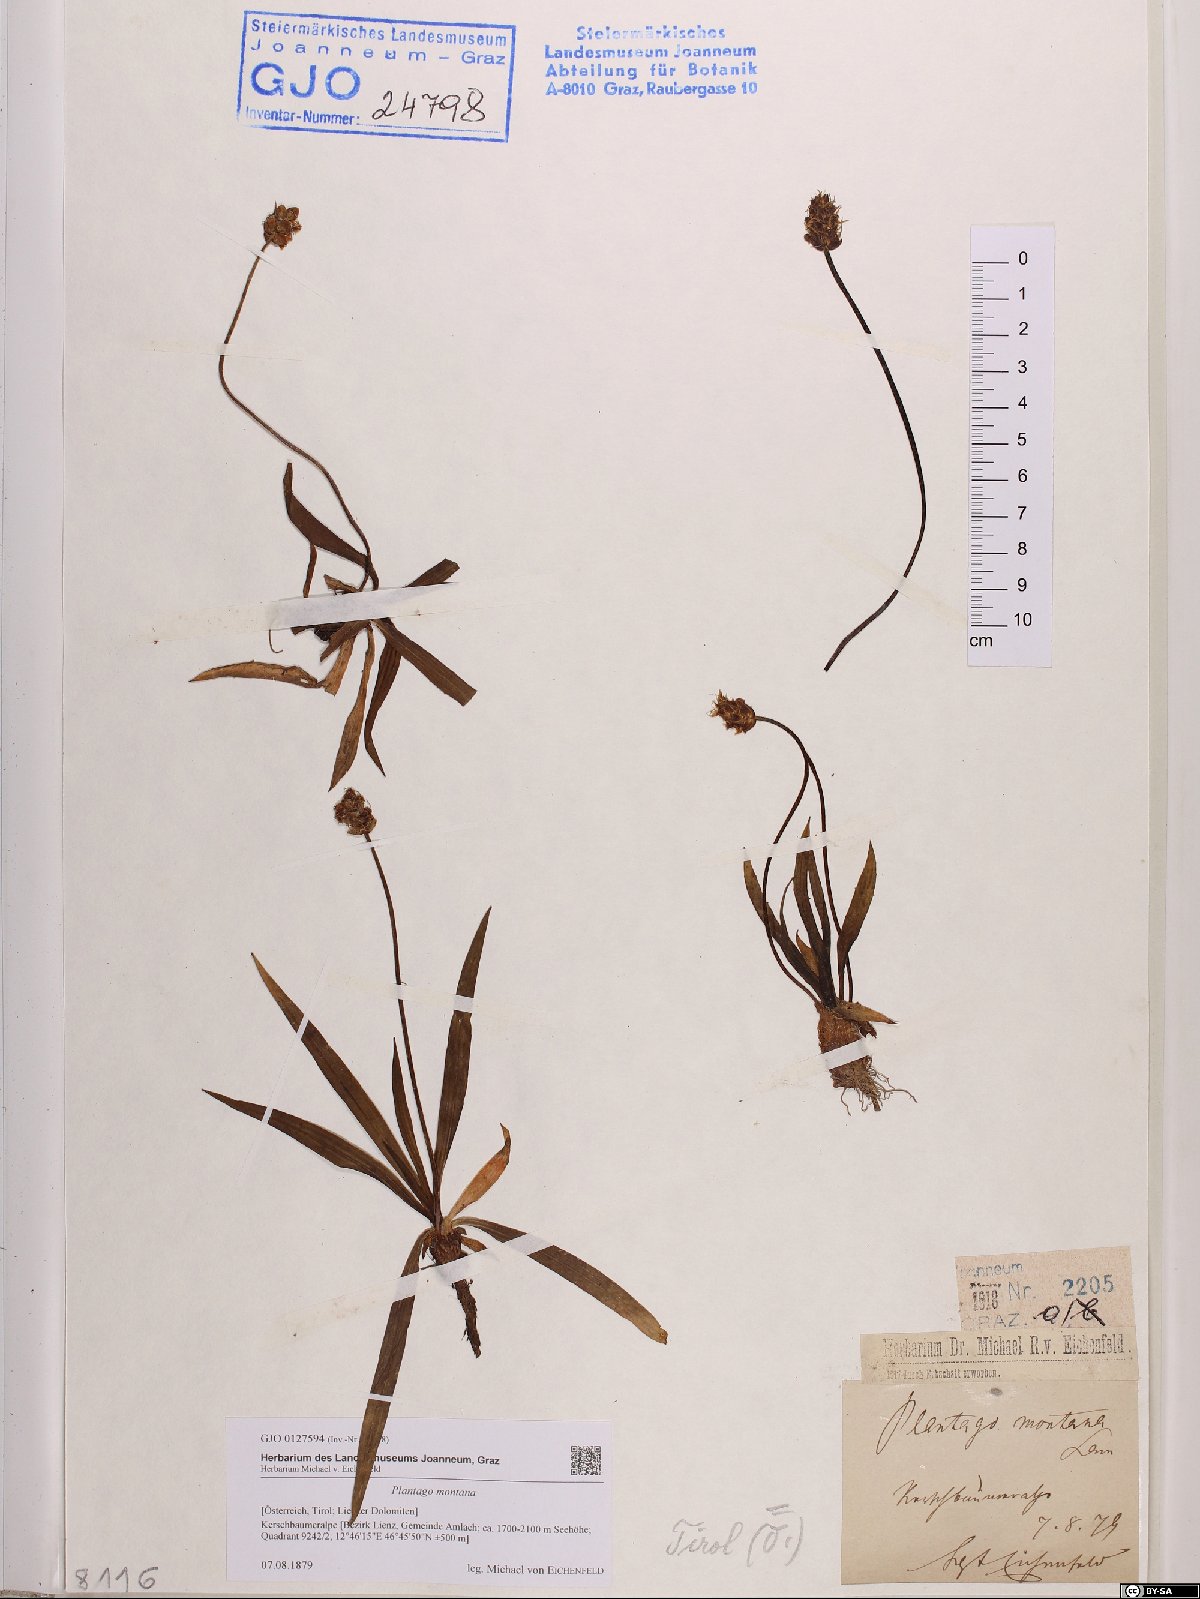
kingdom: Plantae
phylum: Tracheophyta
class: Magnoliopsida
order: Lamiales
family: Plantaginaceae
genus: Plantago
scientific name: Plantago atrata
